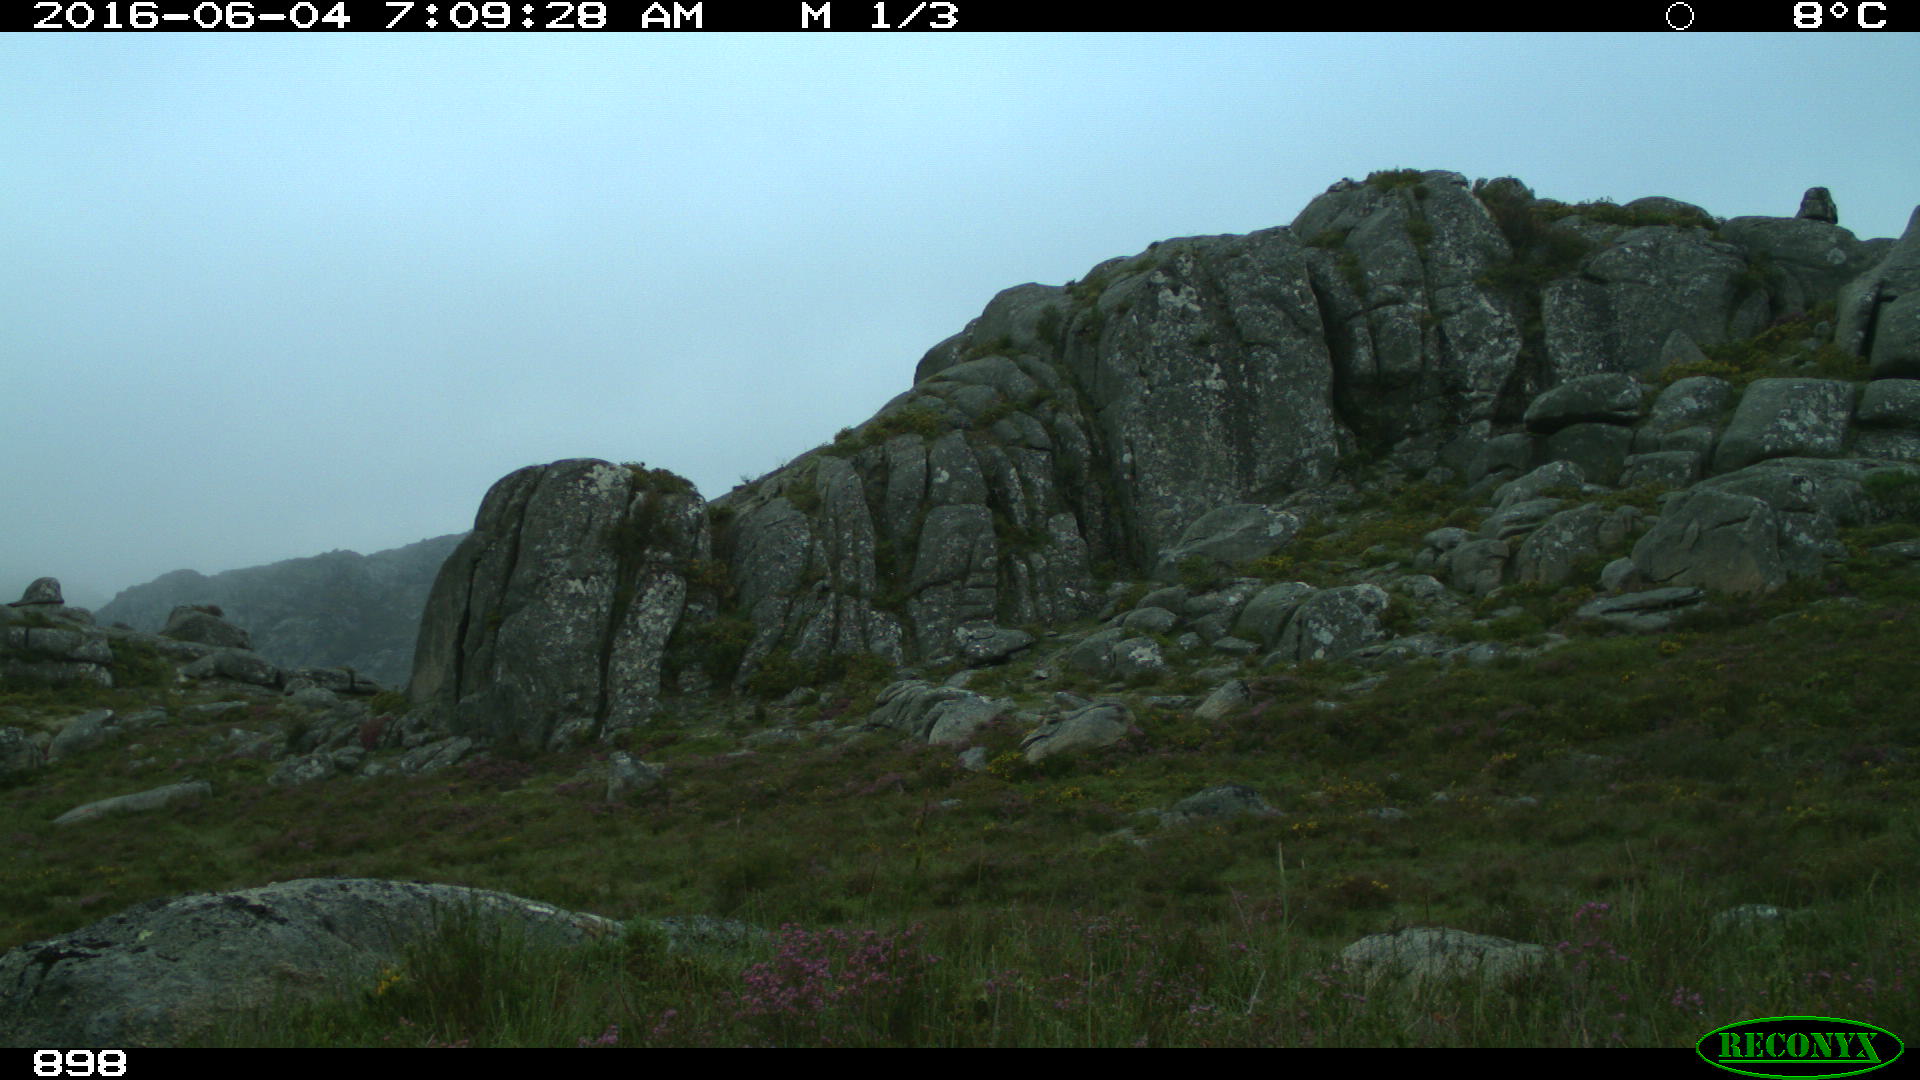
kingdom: Animalia
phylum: Chordata
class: Mammalia
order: Artiodactyla
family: Bovidae
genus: Bos
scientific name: Bos taurus
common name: Domesticated cattle
